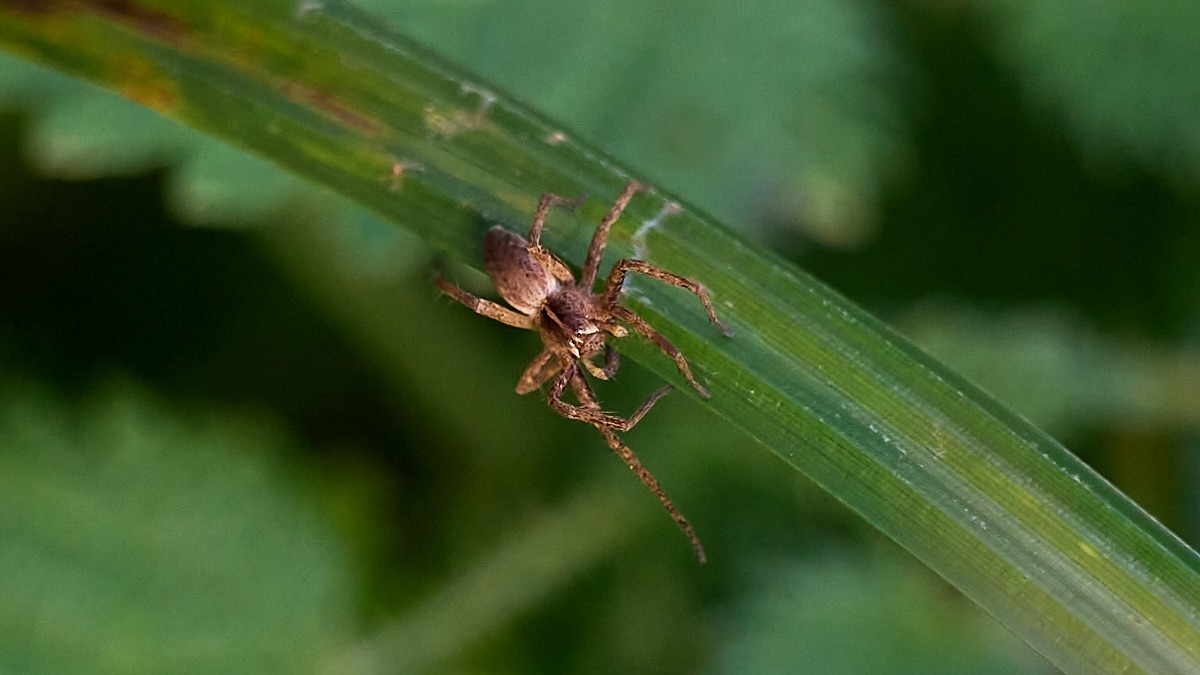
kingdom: Animalia
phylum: Arthropoda
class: Arachnida
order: Araneae
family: Pisauridae
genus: Pisaura
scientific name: Pisaura mirabilis
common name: Almindelig rovedderkop
